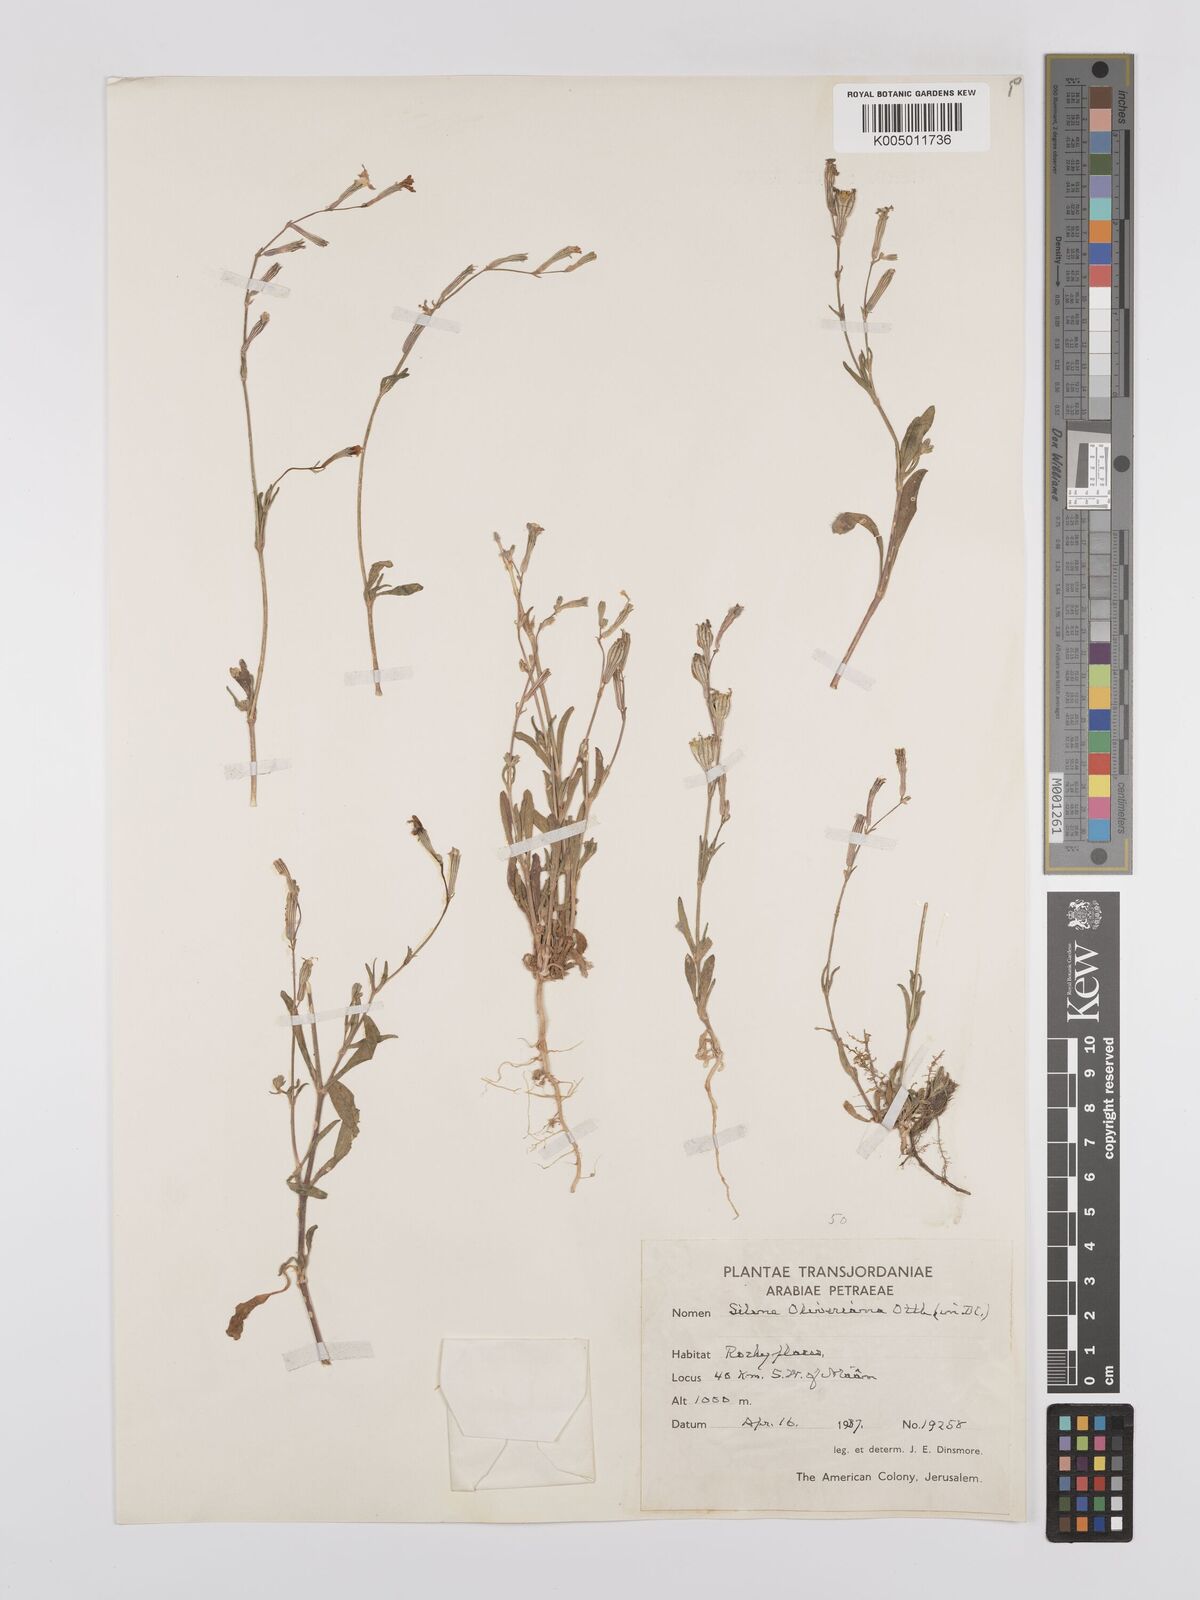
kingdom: Plantae
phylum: Tracheophyta
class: Magnoliopsida
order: Caryophyllales
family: Caryophyllaceae
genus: Silene
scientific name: Silene oliveriana
